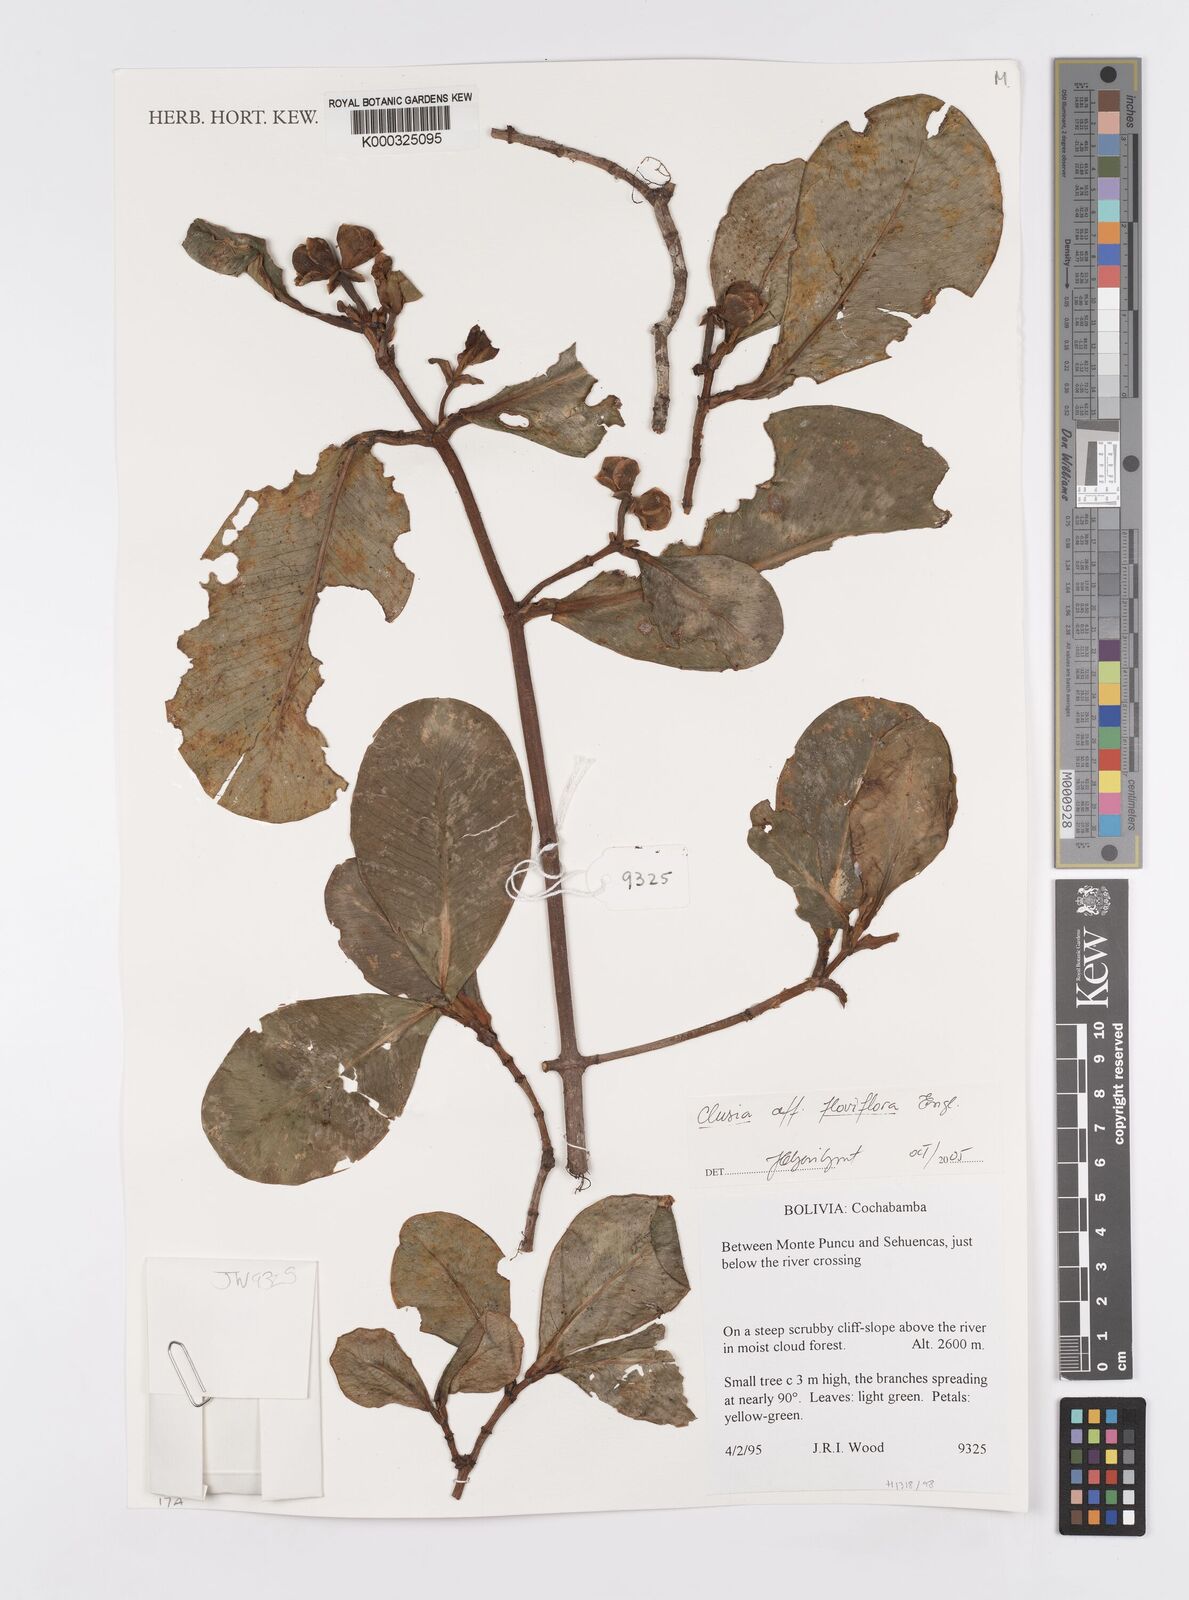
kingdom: Plantae
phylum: Tracheophyta
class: Magnoliopsida
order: Malpighiales
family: Clusiaceae
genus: Clusia
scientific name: Clusia
